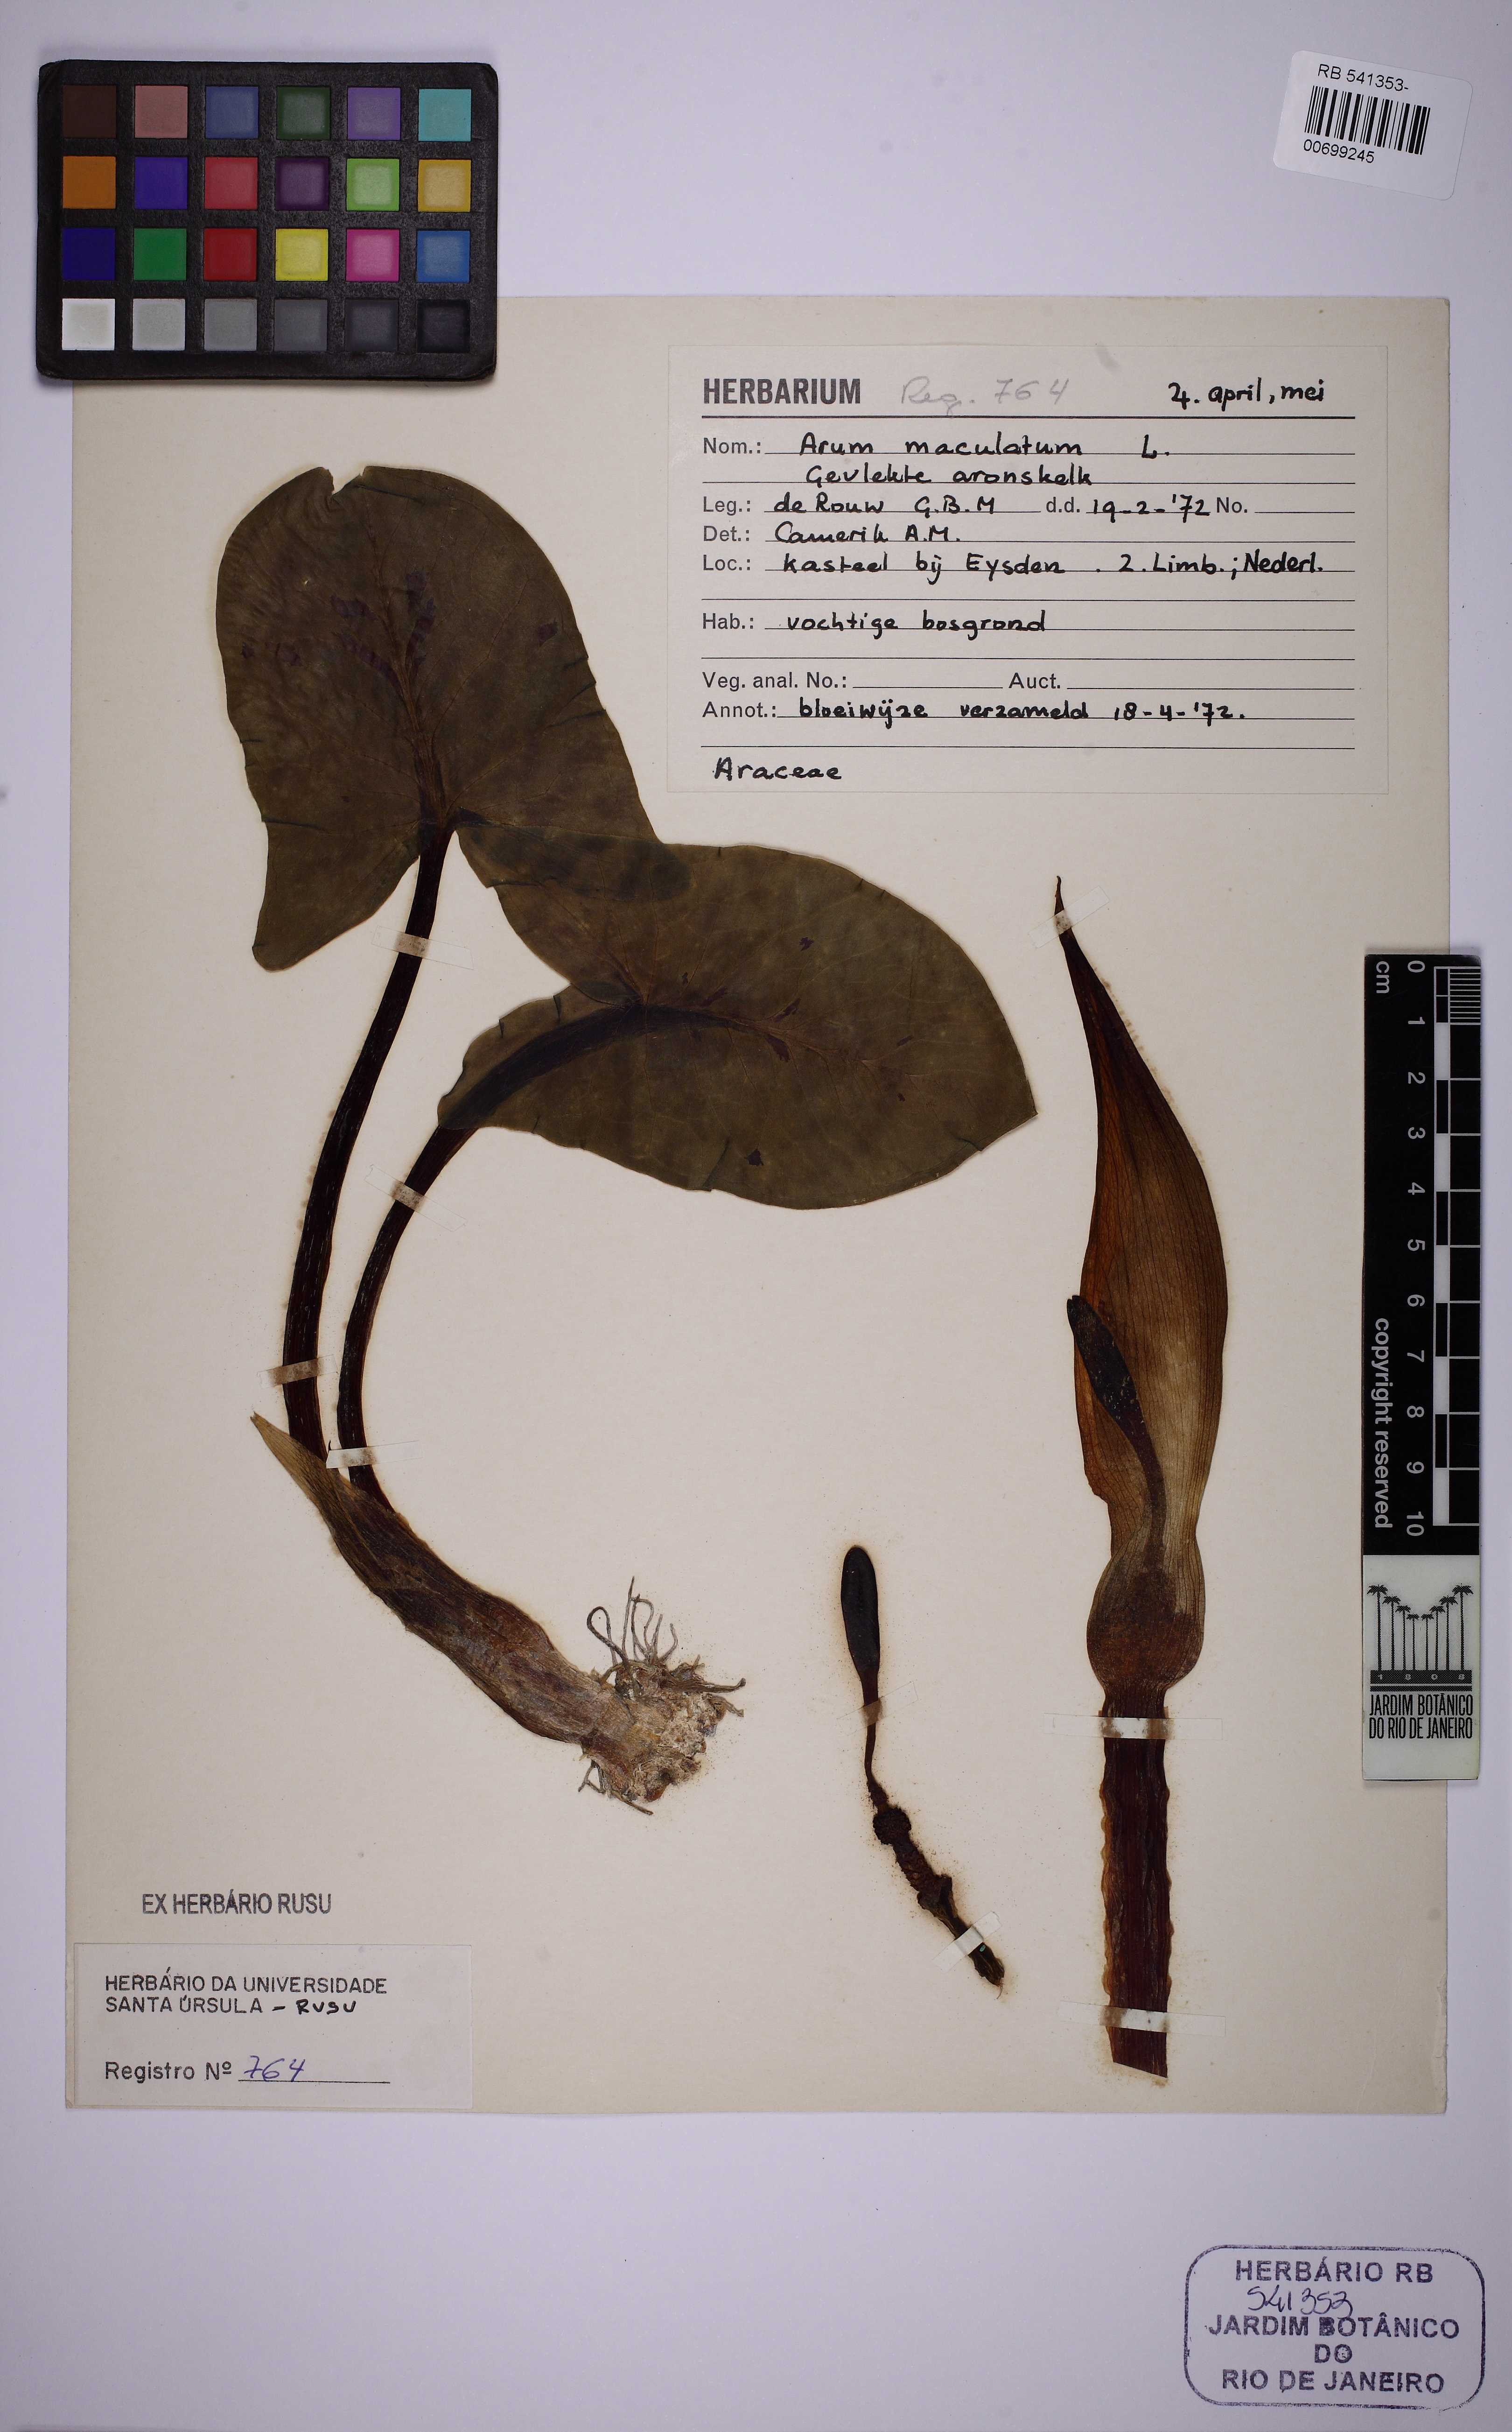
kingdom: Plantae
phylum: Tracheophyta
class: Liliopsida
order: Alismatales
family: Araceae
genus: Arum
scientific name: Arum maculatum
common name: Lords-and-ladies
